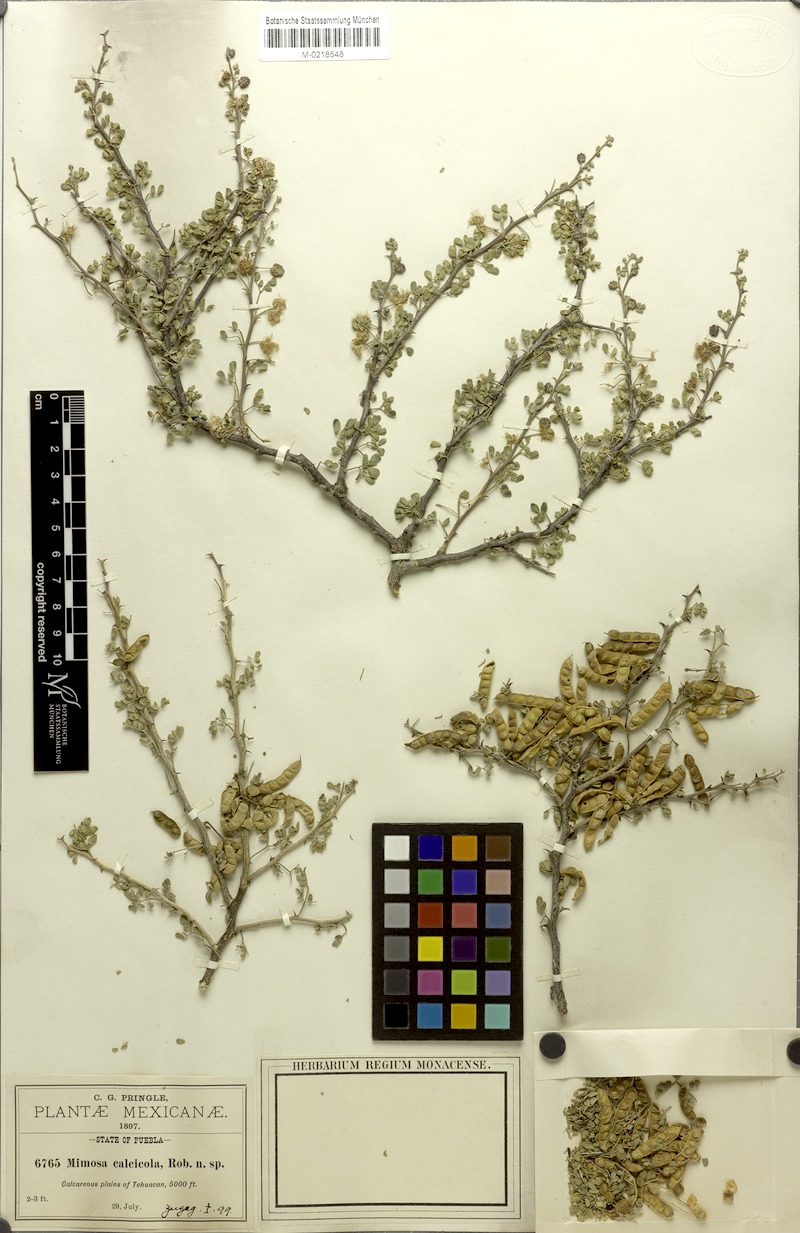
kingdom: Plantae
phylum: Tracheophyta
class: Magnoliopsida
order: Fabales
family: Fabaceae
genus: Mimosa
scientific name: Mimosa calcicola
